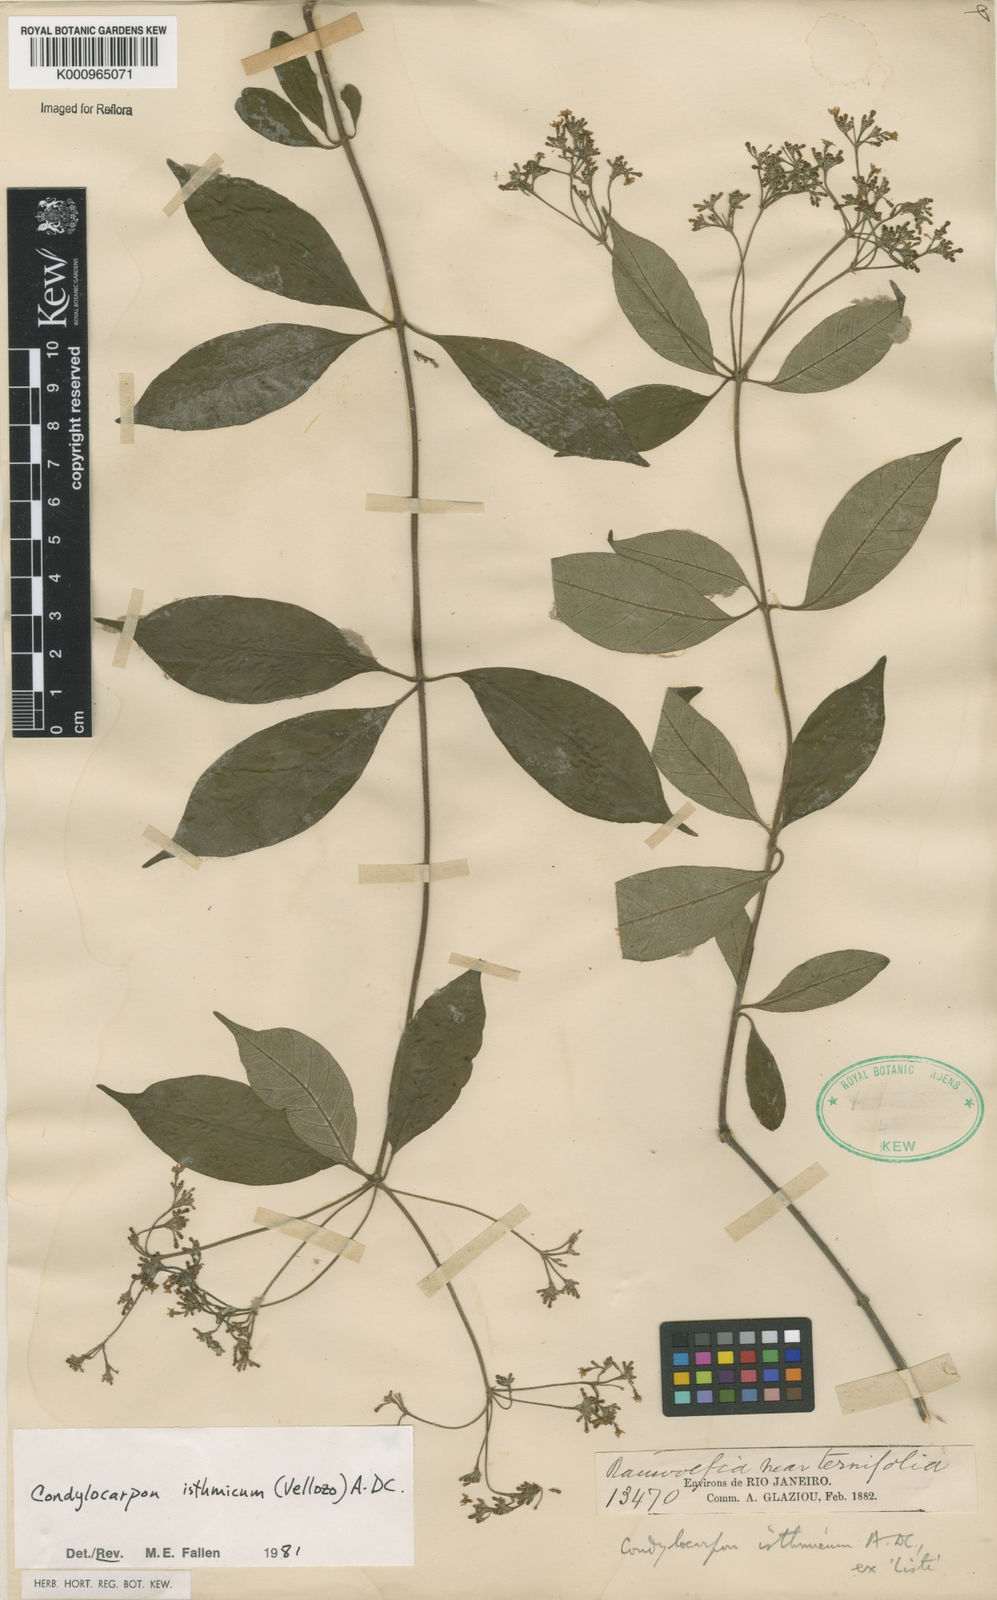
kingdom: Plantae
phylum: Tracheophyta
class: Magnoliopsida
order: Gentianales
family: Apocynaceae
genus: Condylocarpon
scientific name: Condylocarpon isthmicum
